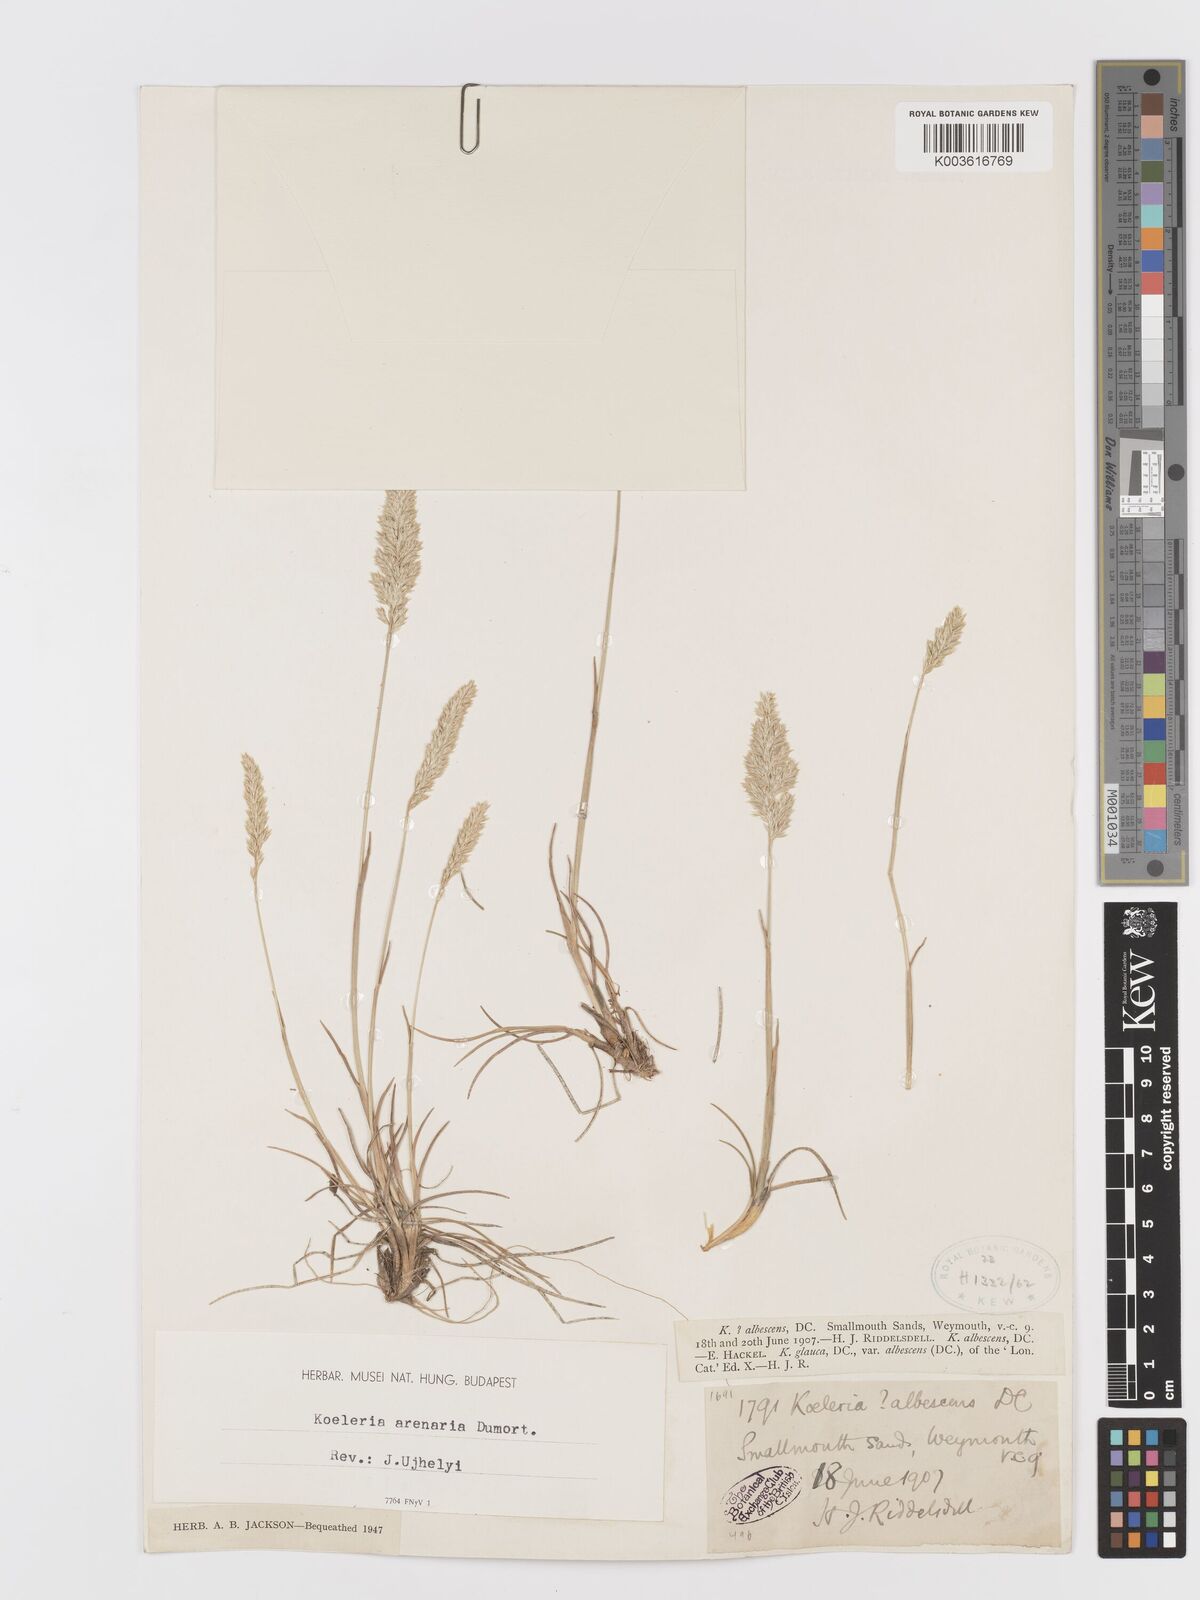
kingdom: Plantae
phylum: Tracheophyta
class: Liliopsida
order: Poales
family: Poaceae
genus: Koeleria
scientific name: Koeleria
